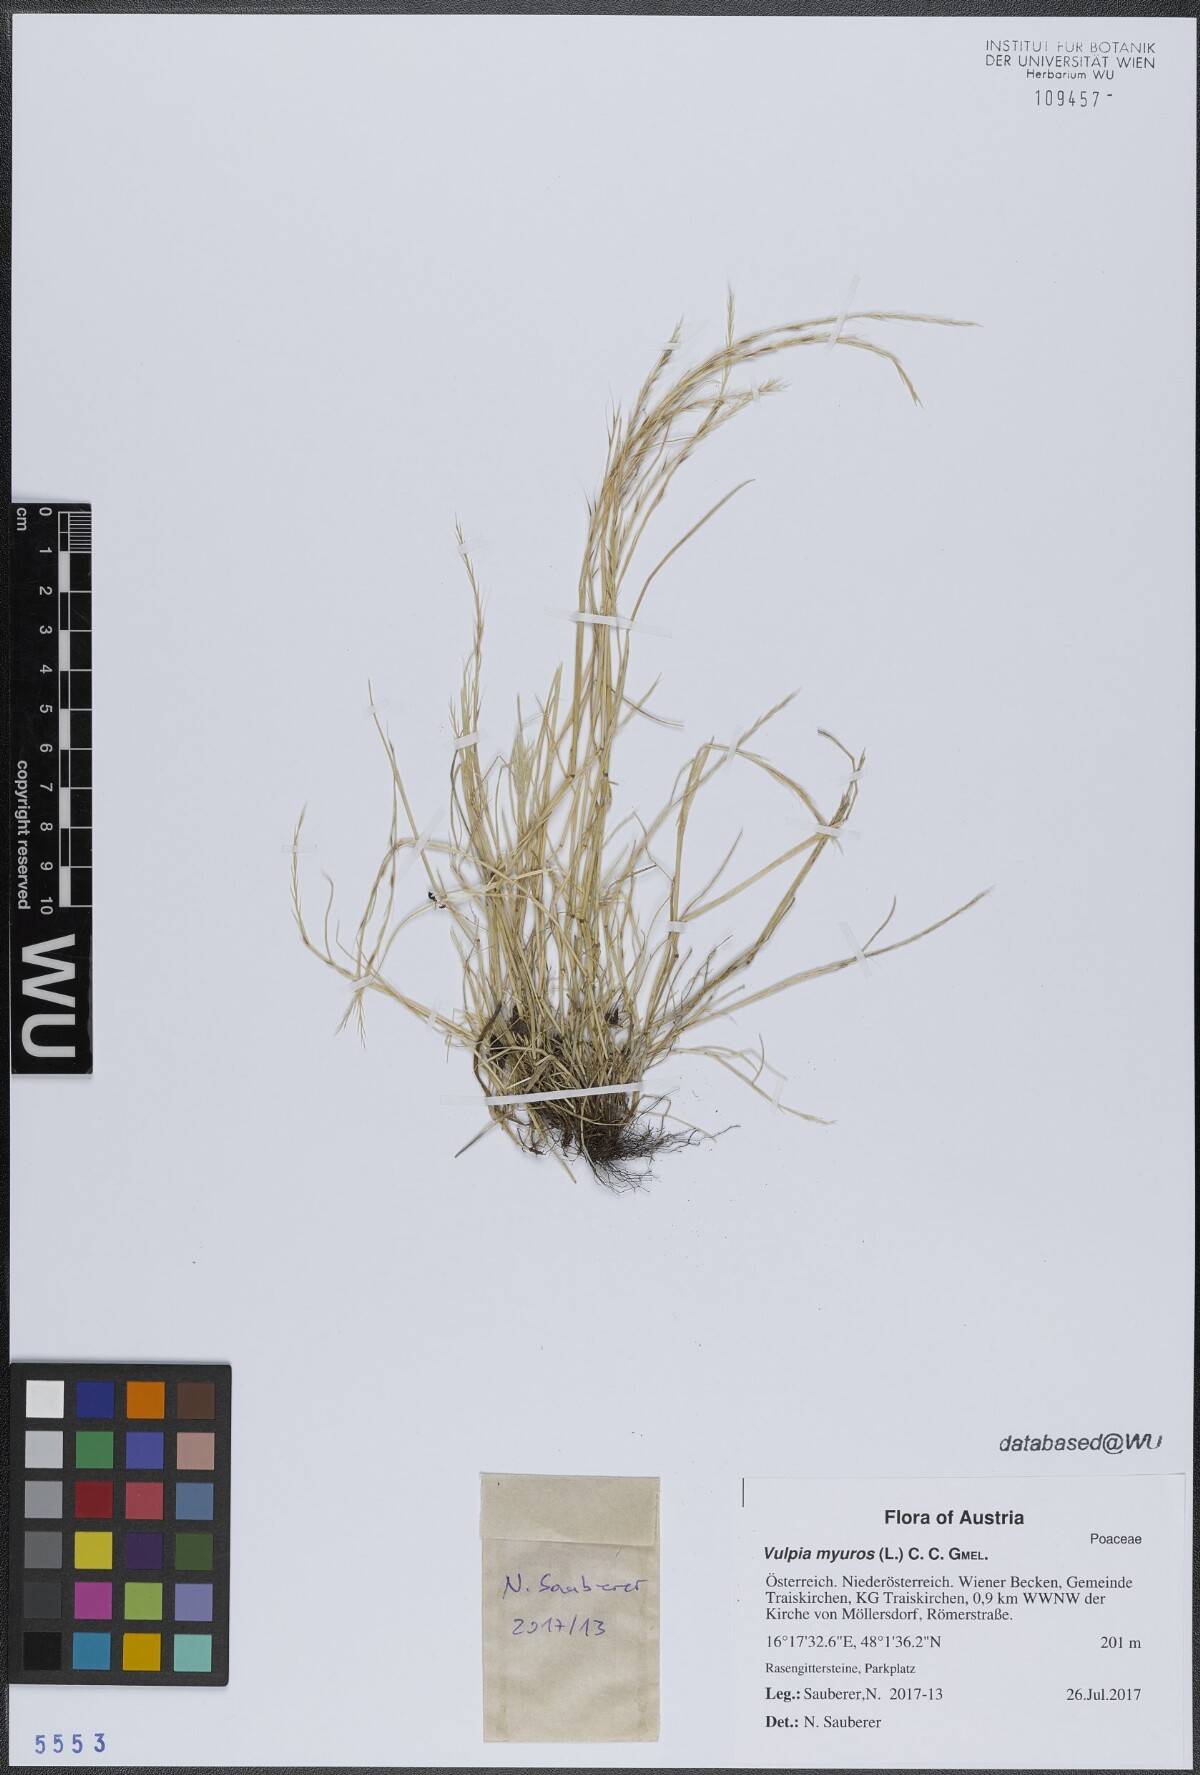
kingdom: Plantae
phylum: Tracheophyta
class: Liliopsida
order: Poales
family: Poaceae
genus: Festuca
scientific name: Festuca myuros
